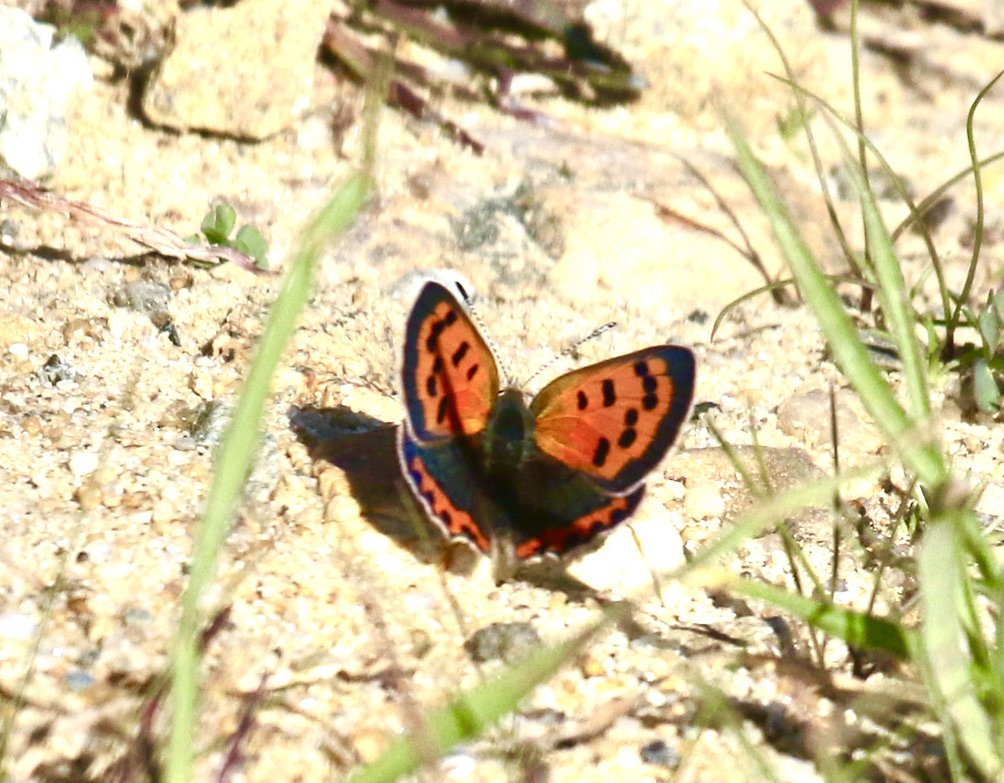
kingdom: Animalia
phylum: Arthropoda
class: Insecta
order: Lepidoptera
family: Lycaenidae
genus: Lycaena
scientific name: Lycaena phlaeas
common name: American Copper
